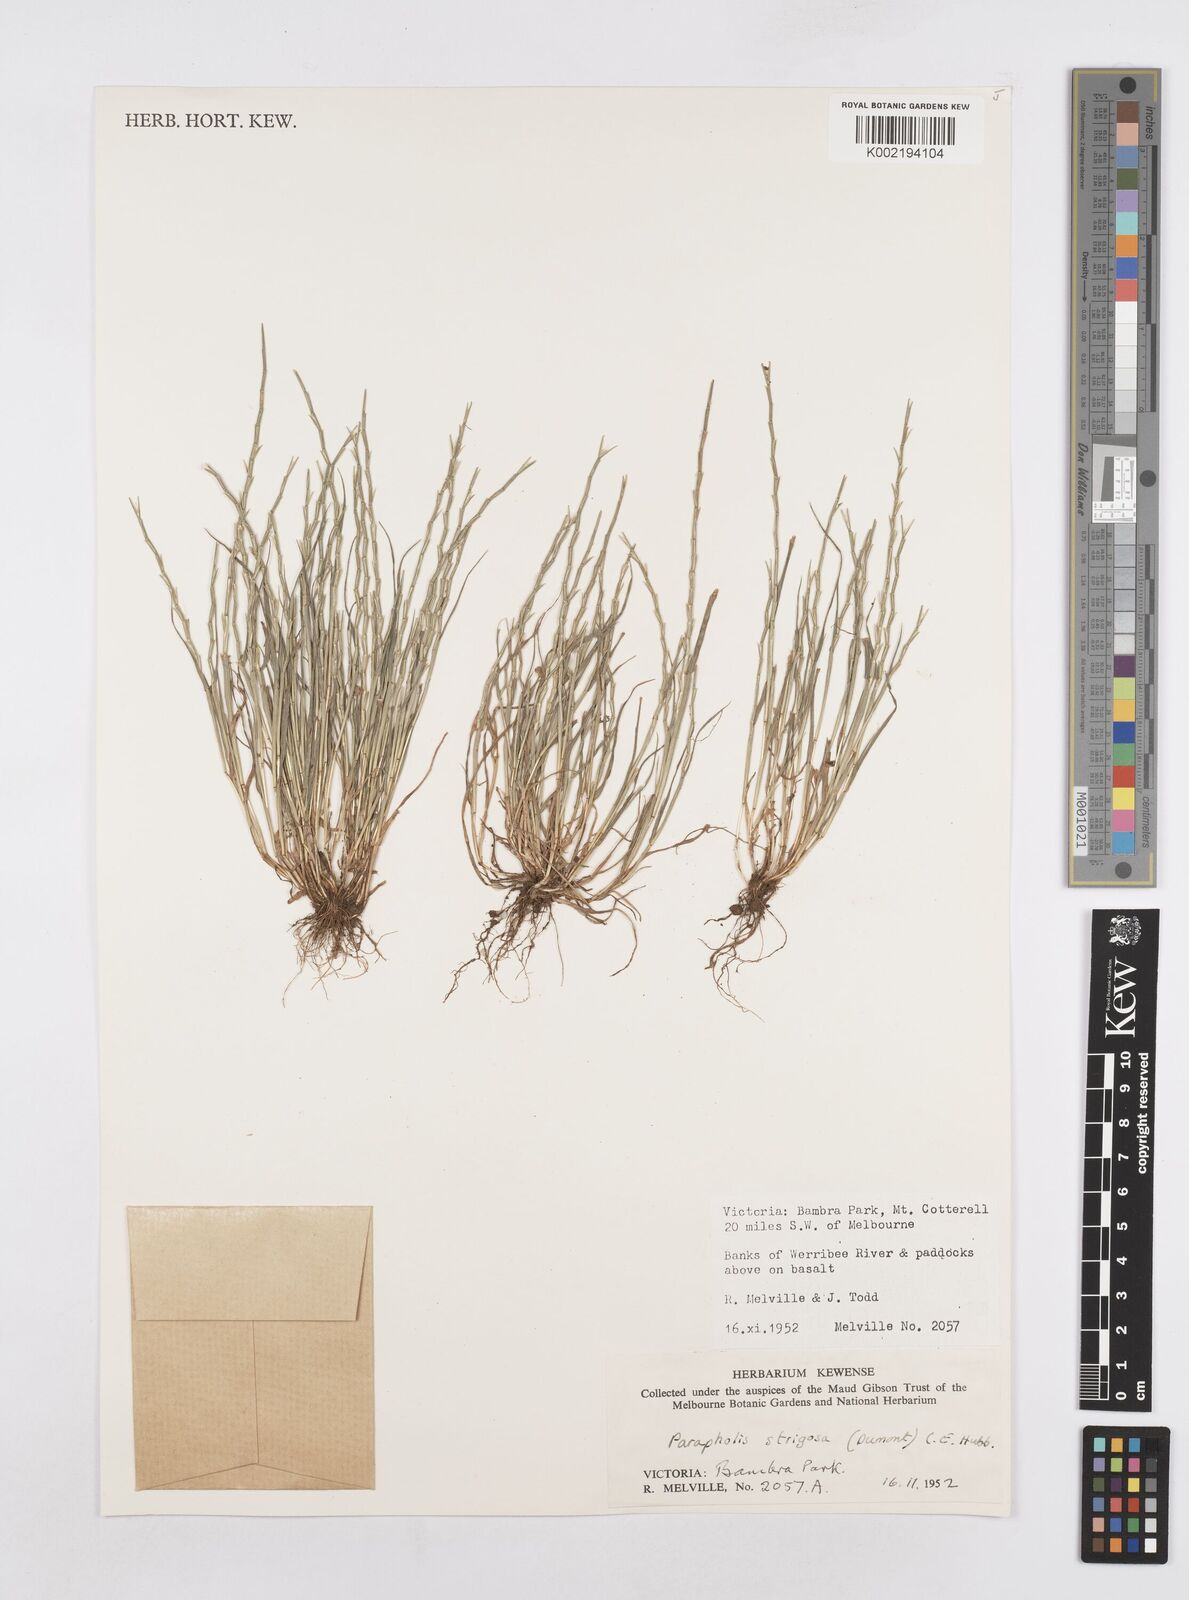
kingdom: Plantae
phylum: Tracheophyta
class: Liliopsida
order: Poales
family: Poaceae
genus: Parapholis
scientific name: Parapholis strigosa
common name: Hard-grass
